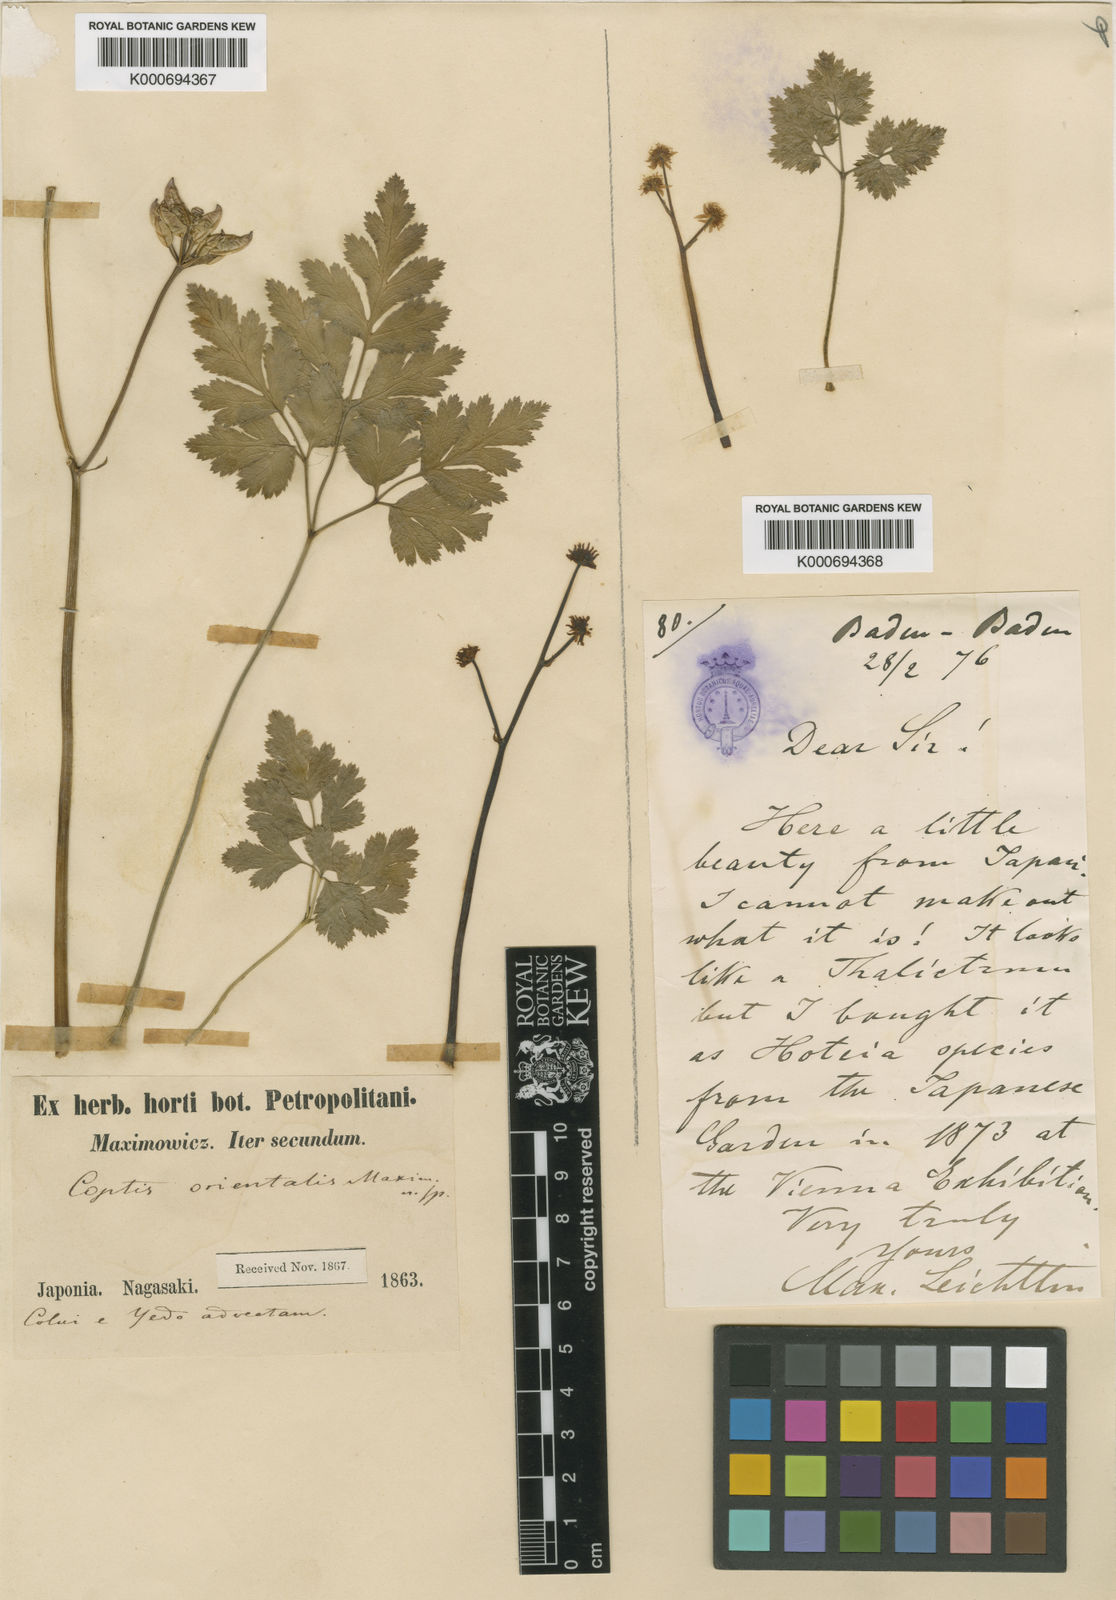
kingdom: Plantae
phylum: Tracheophyta
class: Magnoliopsida
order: Ranunculales
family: Ranunculaceae
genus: Coptis
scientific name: Coptis japonica
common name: Japanese goldthread
